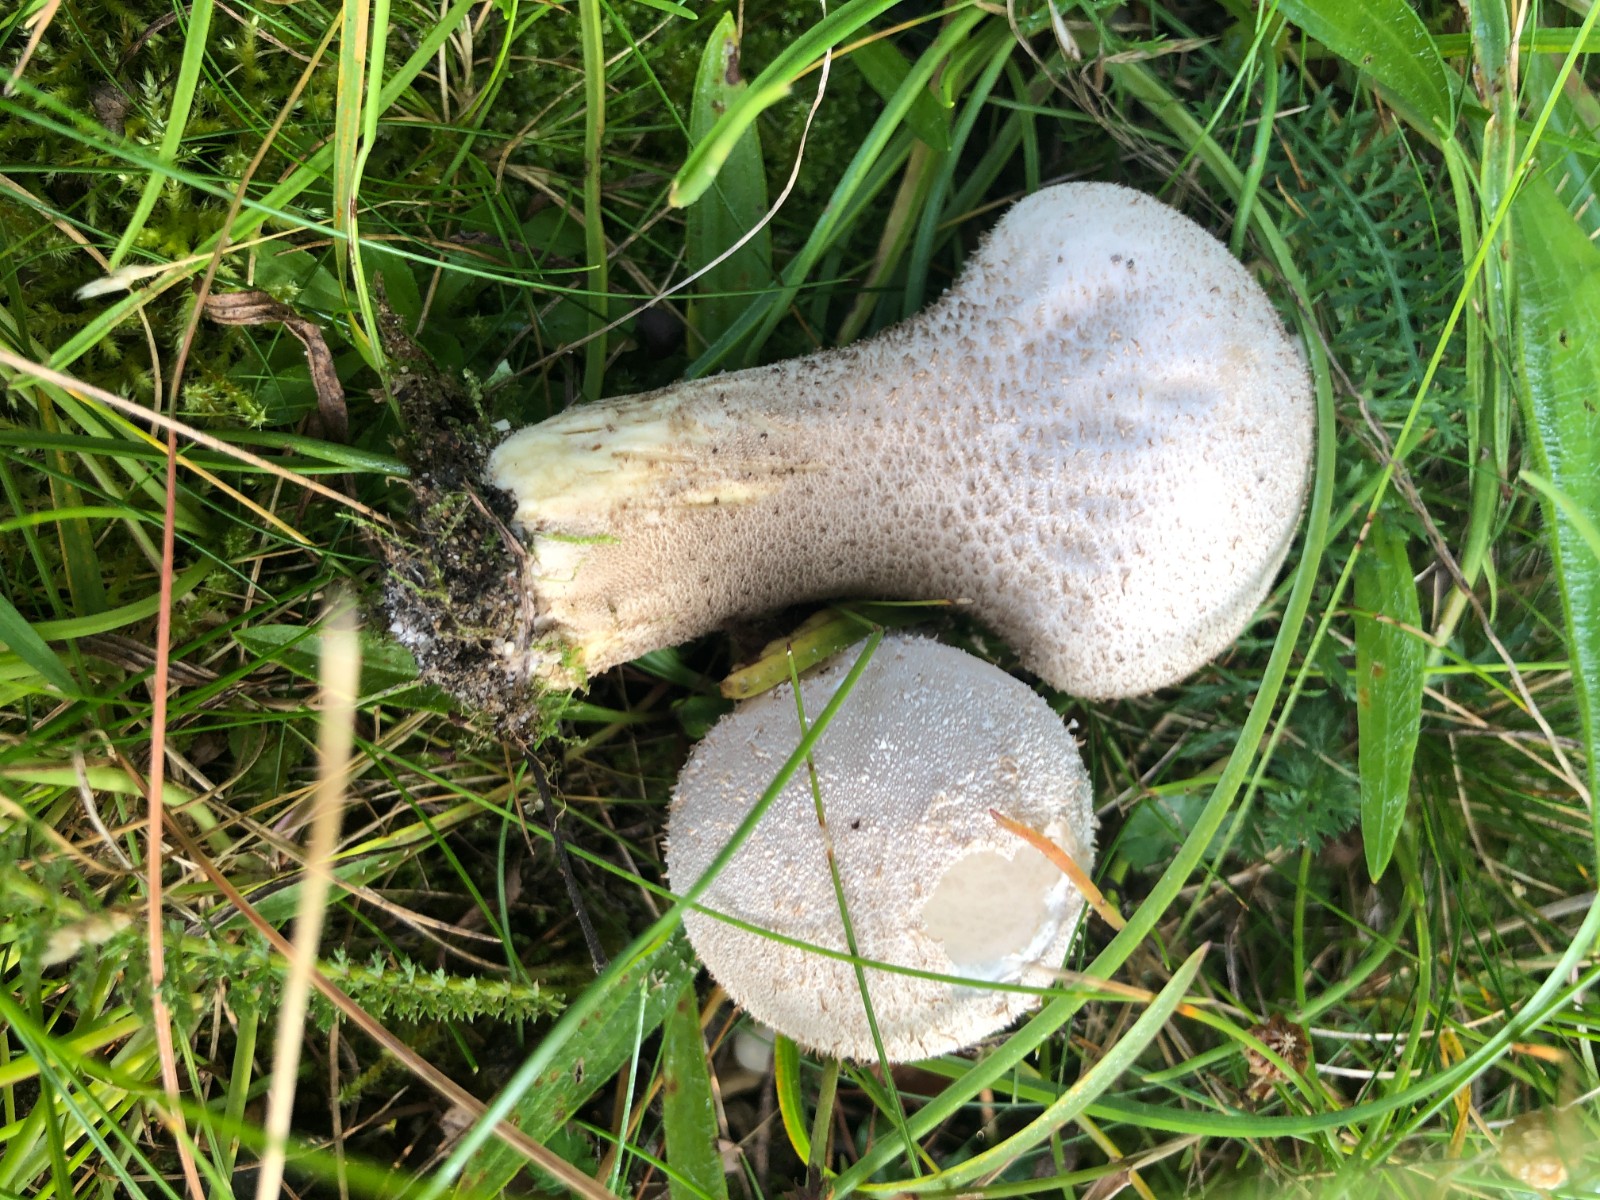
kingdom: Fungi
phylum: Basidiomycota
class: Agaricomycetes
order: Agaricales
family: Lycoperdaceae
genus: Lycoperdon
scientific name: Lycoperdon excipuliforme
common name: højstokket støvbold
